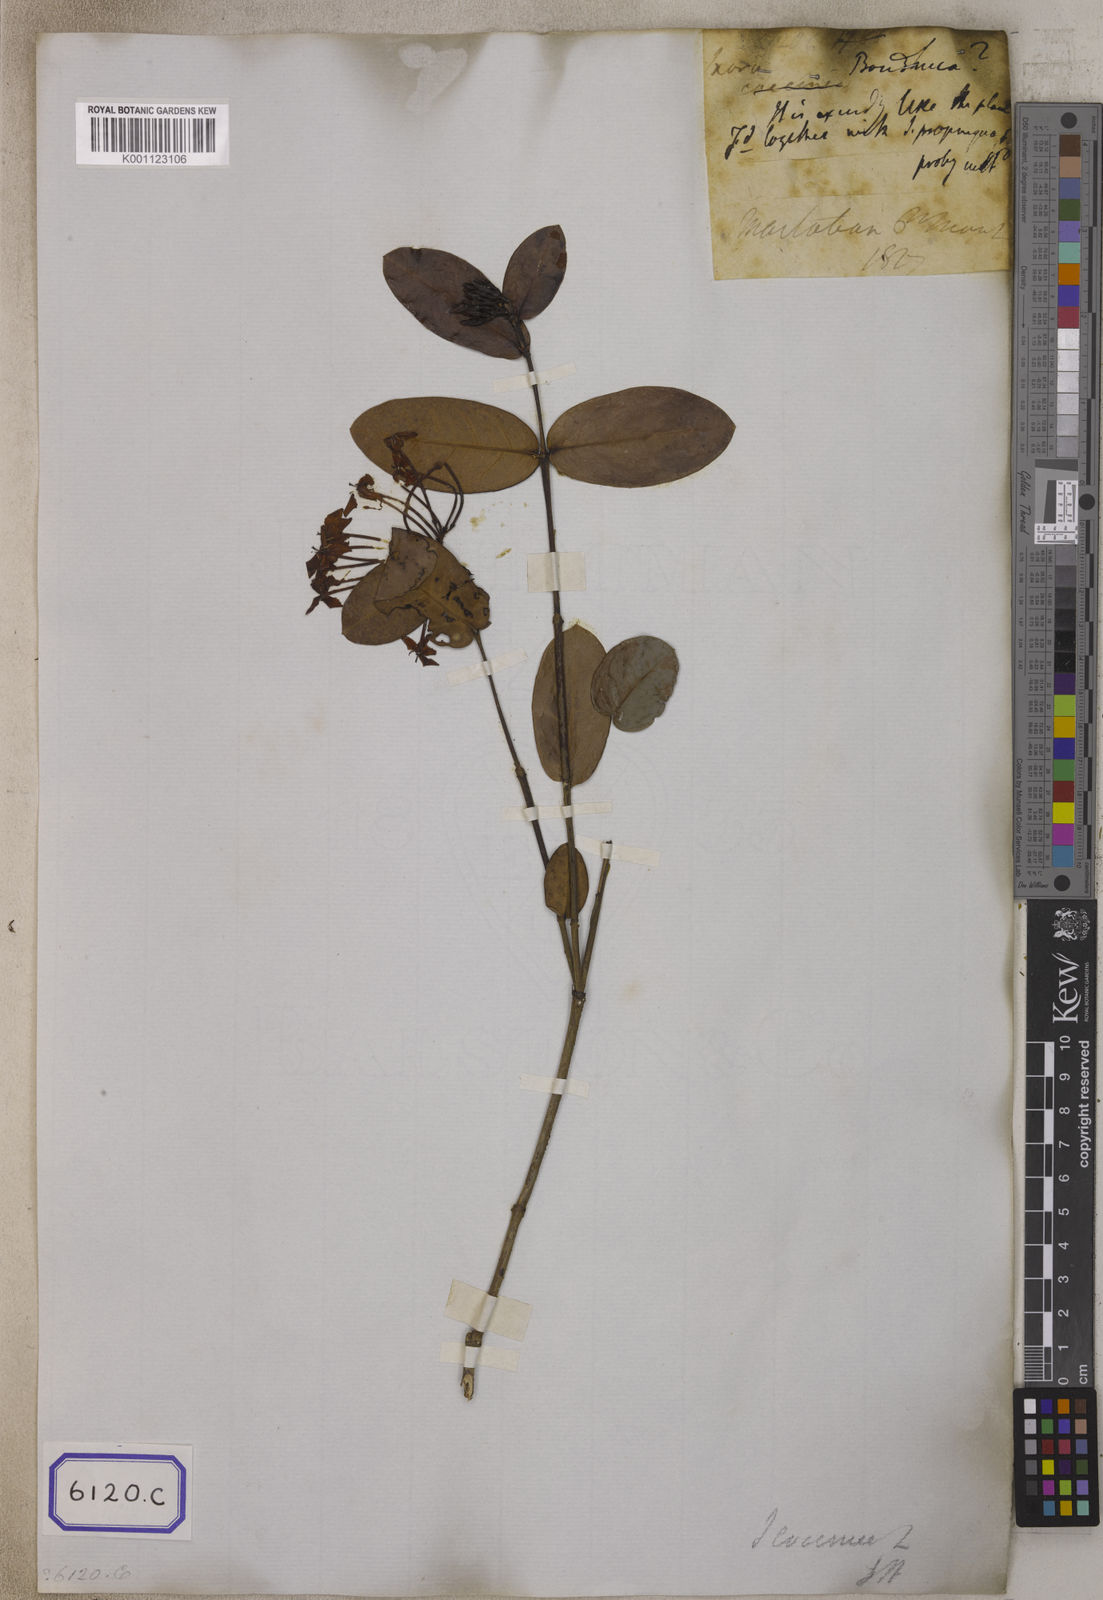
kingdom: Plantae
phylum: Tracheophyta
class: Magnoliopsida
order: Gentianales
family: Rubiaceae
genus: Ixora
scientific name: Ixora coccinea
